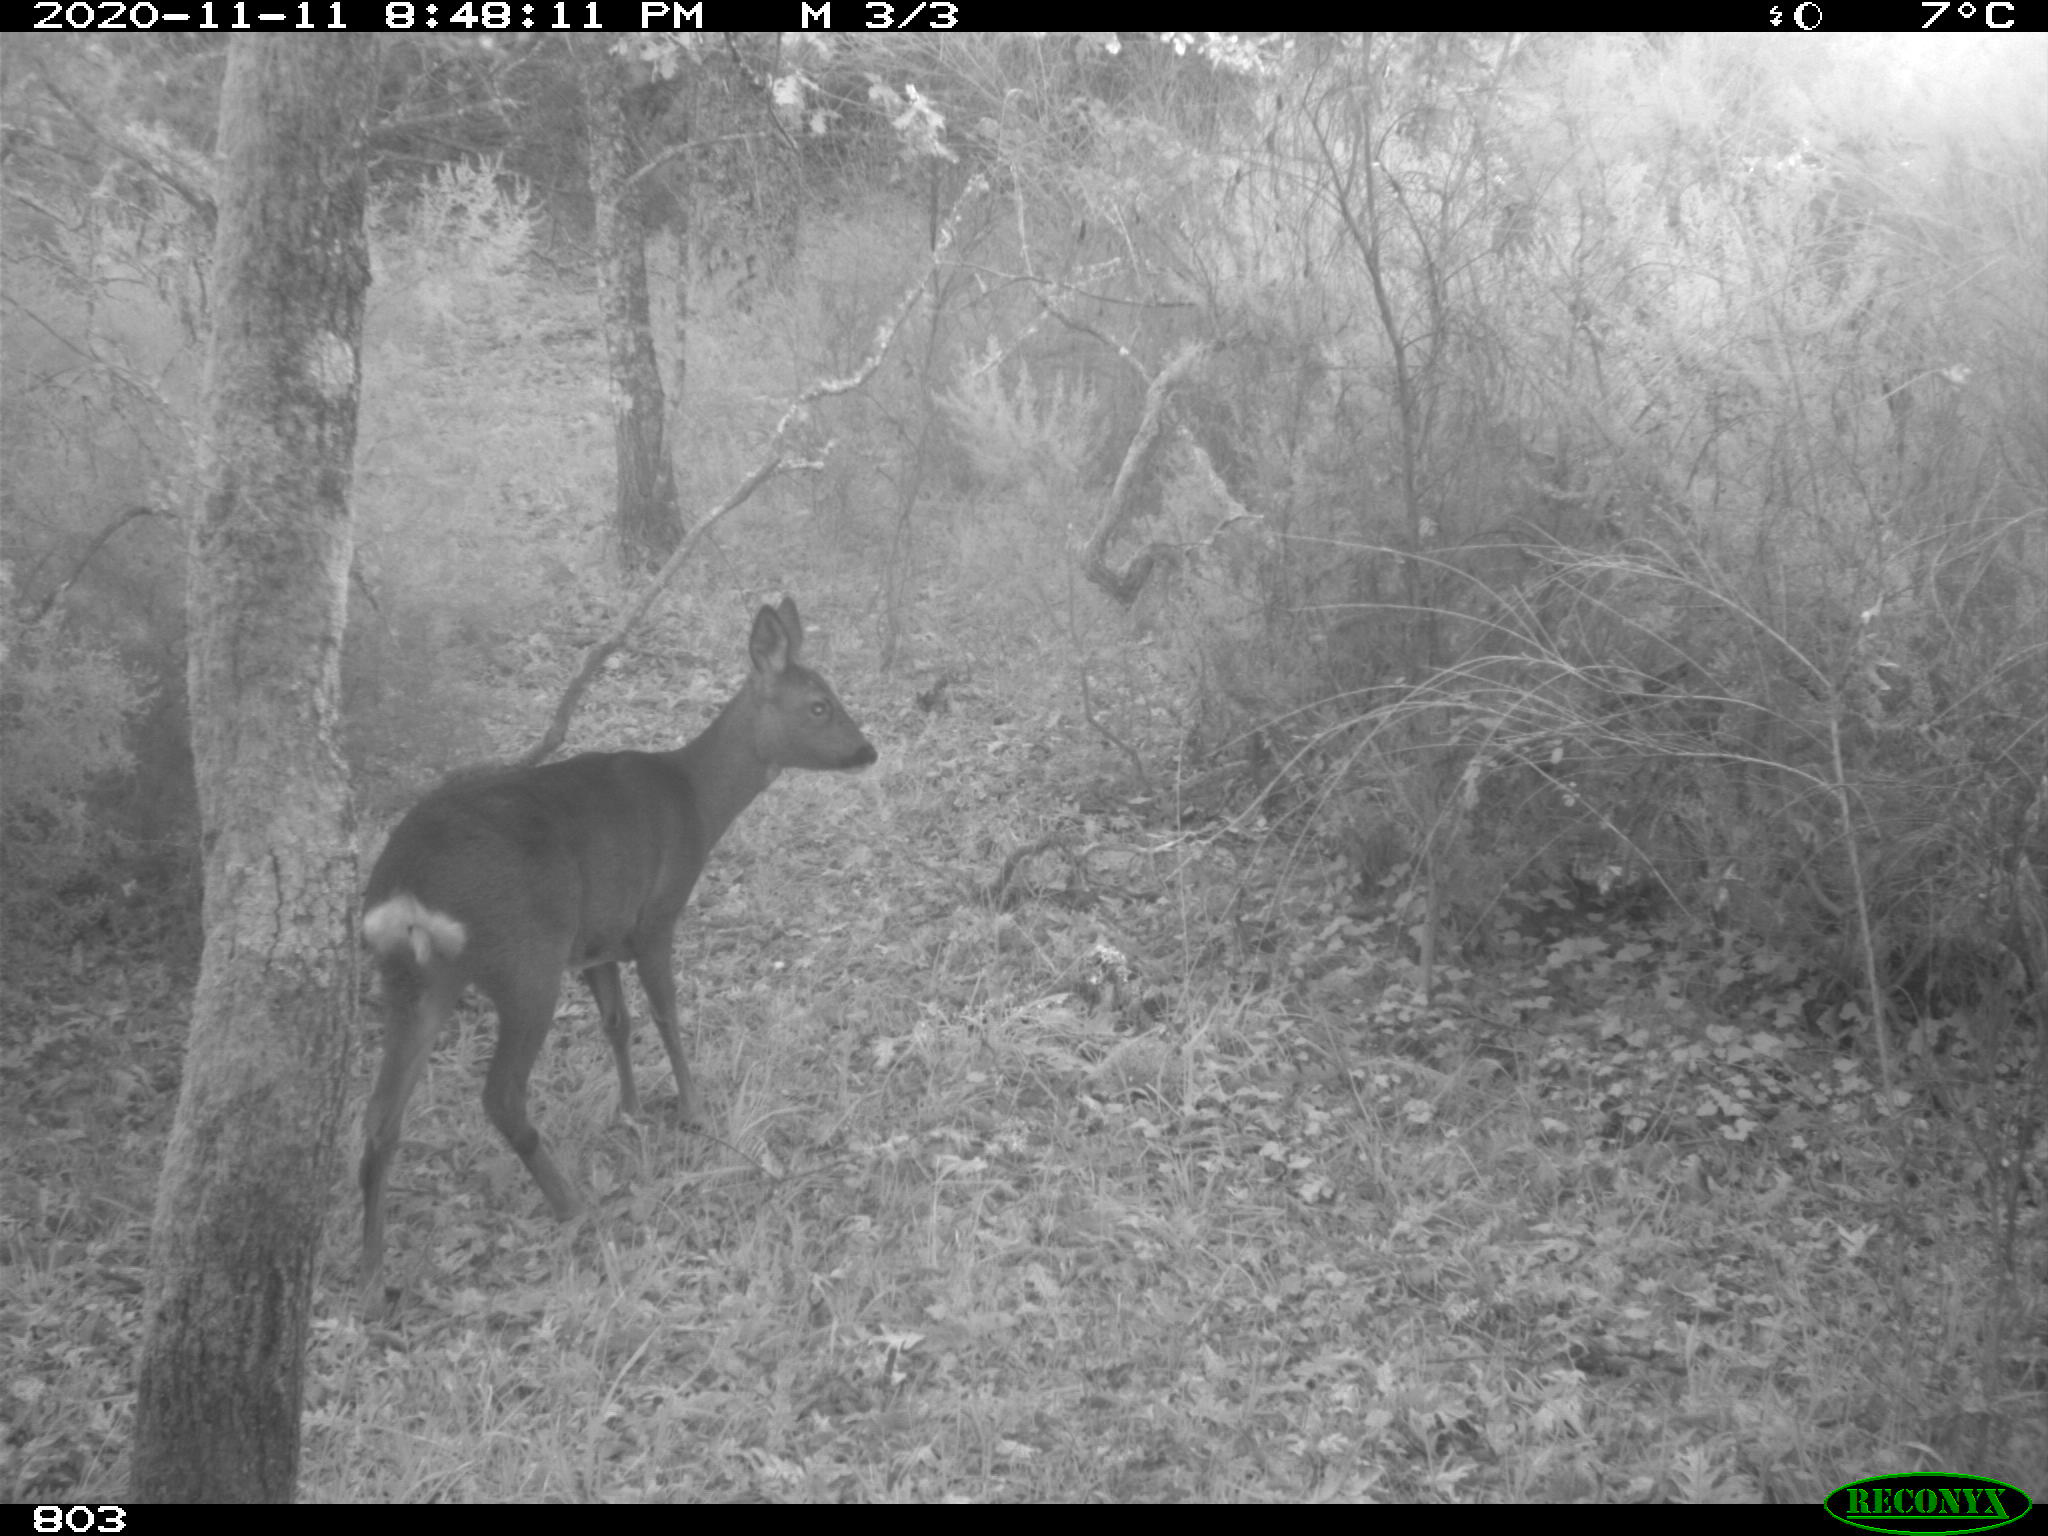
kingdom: Animalia
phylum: Chordata
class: Mammalia
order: Artiodactyla
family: Cervidae
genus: Capreolus
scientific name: Capreolus capreolus
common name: Western roe deer
